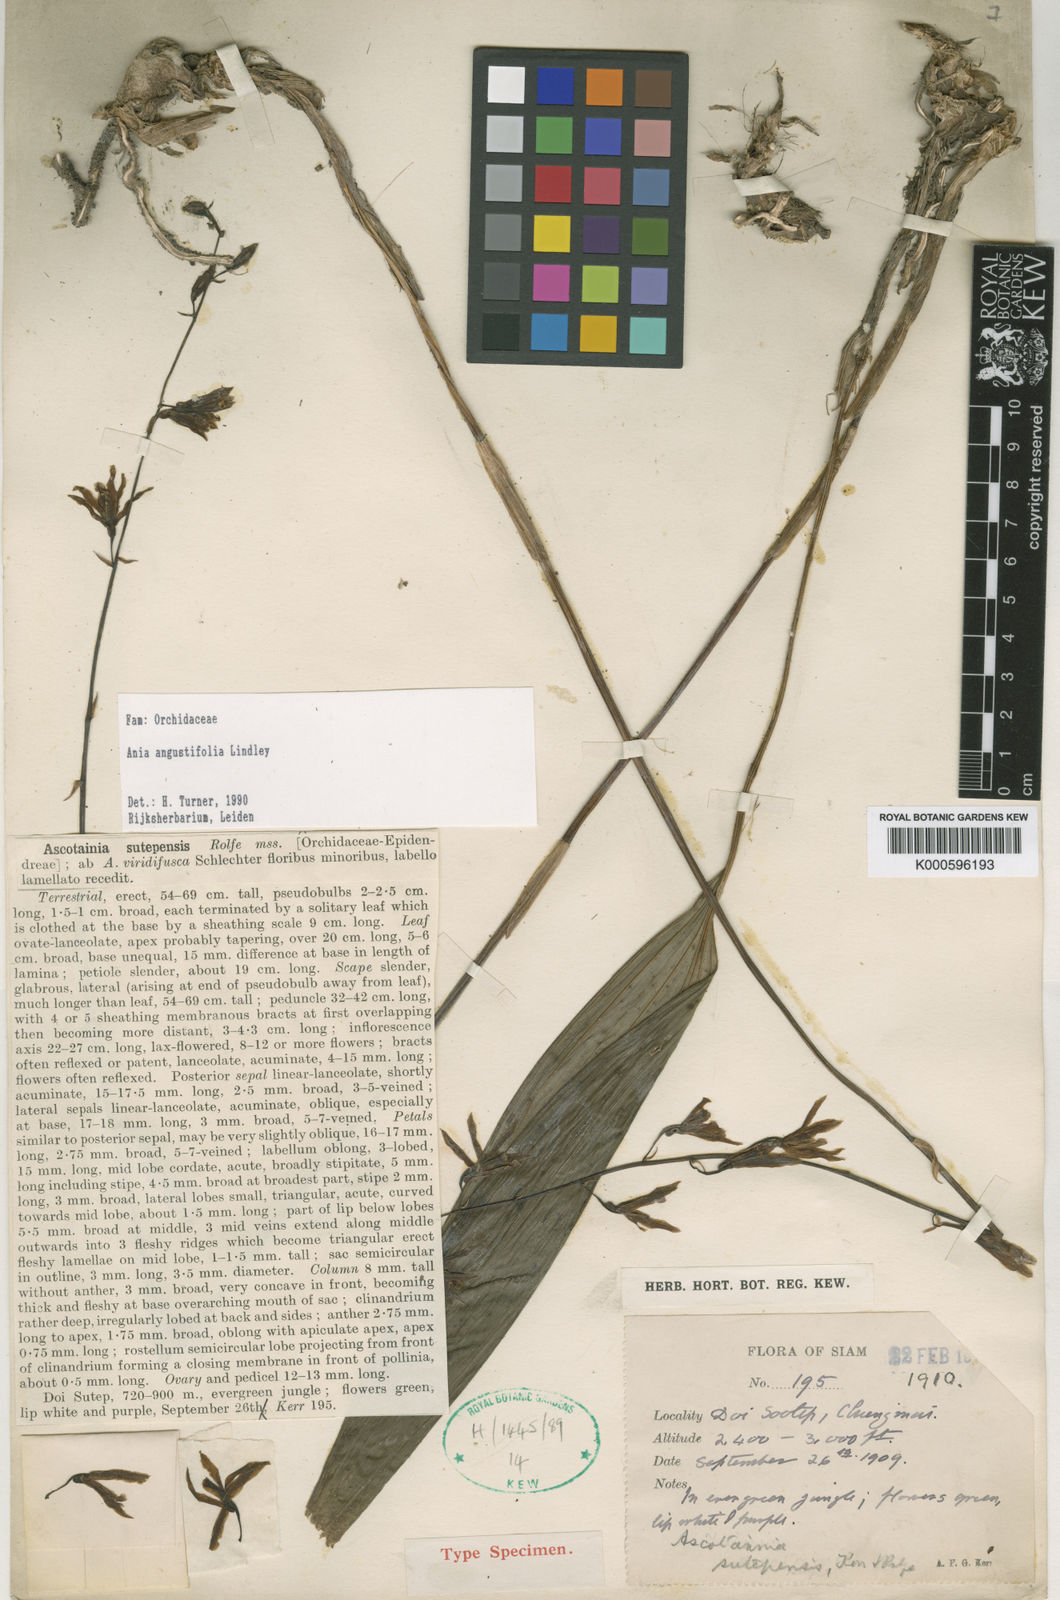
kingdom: Plantae
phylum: Tracheophyta
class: Liliopsida
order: Asparagales
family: Orchidaceae
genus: Ania
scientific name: Ania angustifolia
